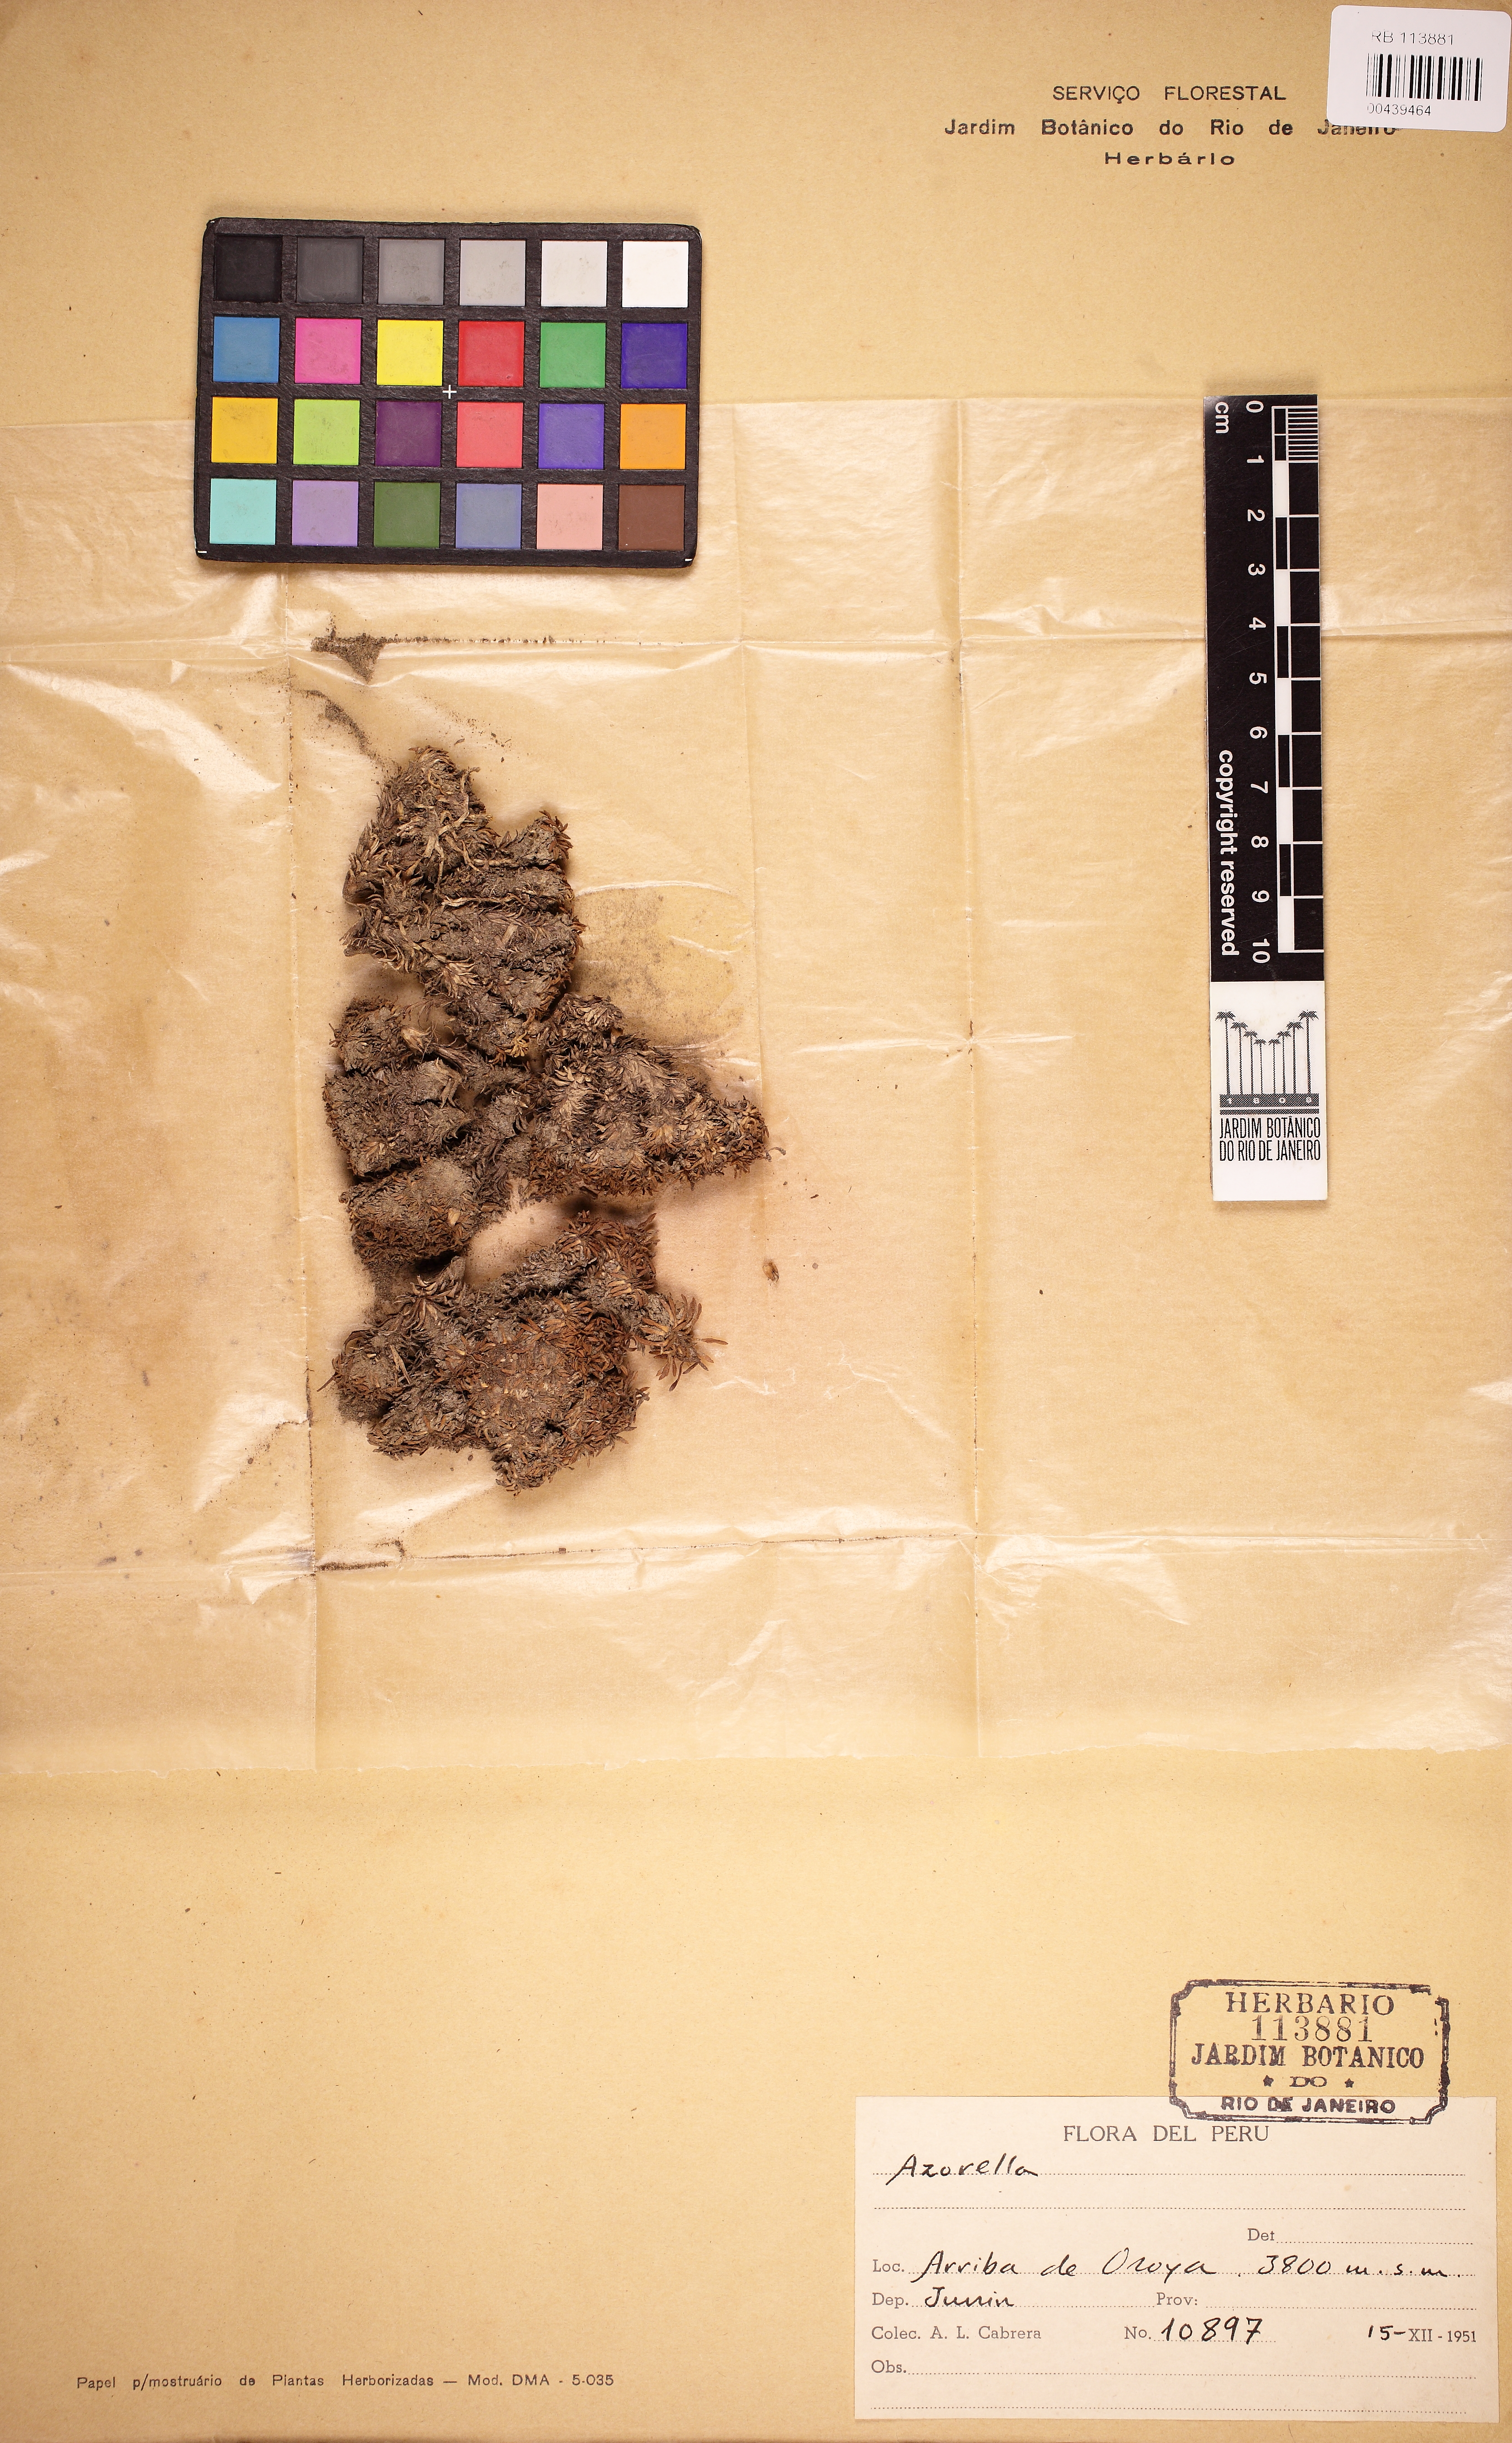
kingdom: Plantae
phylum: Tracheophyta
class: Magnoliopsida
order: Apiales
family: Apiaceae
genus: Azorella
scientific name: Azorella
